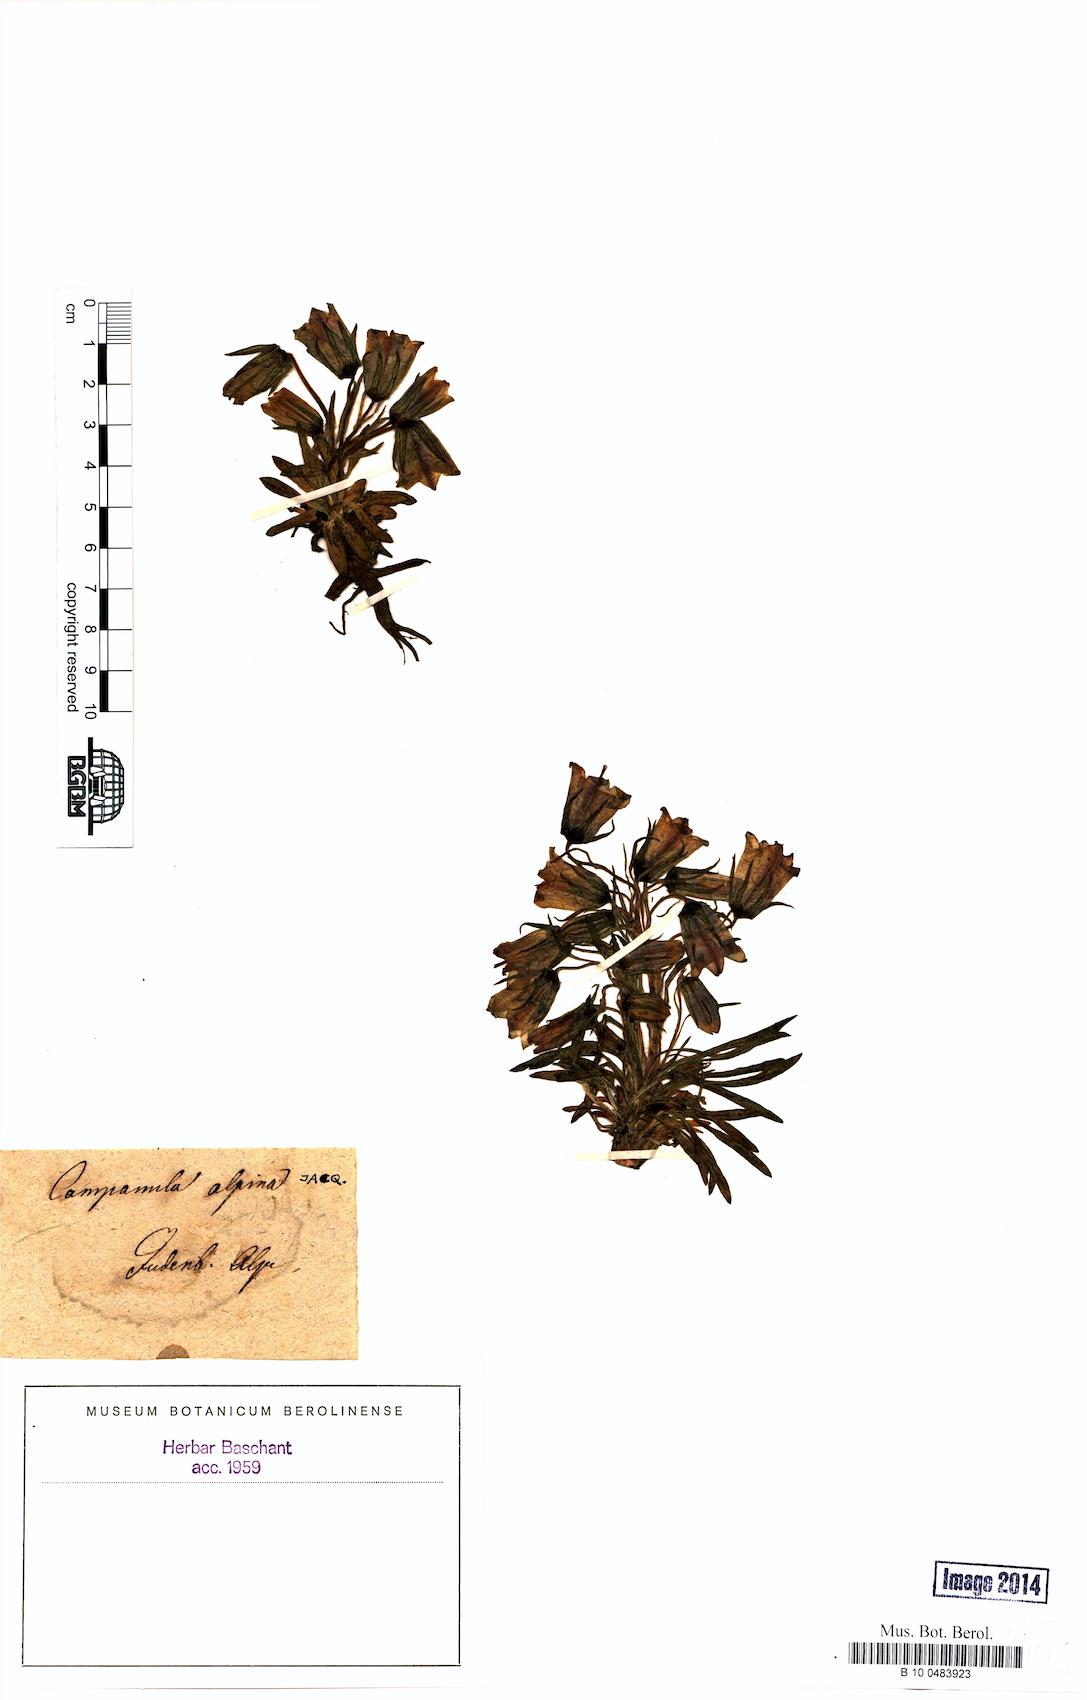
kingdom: Plantae
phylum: Tracheophyta
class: Magnoliopsida
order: Asterales
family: Campanulaceae
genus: Campanula
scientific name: Campanula alpina
